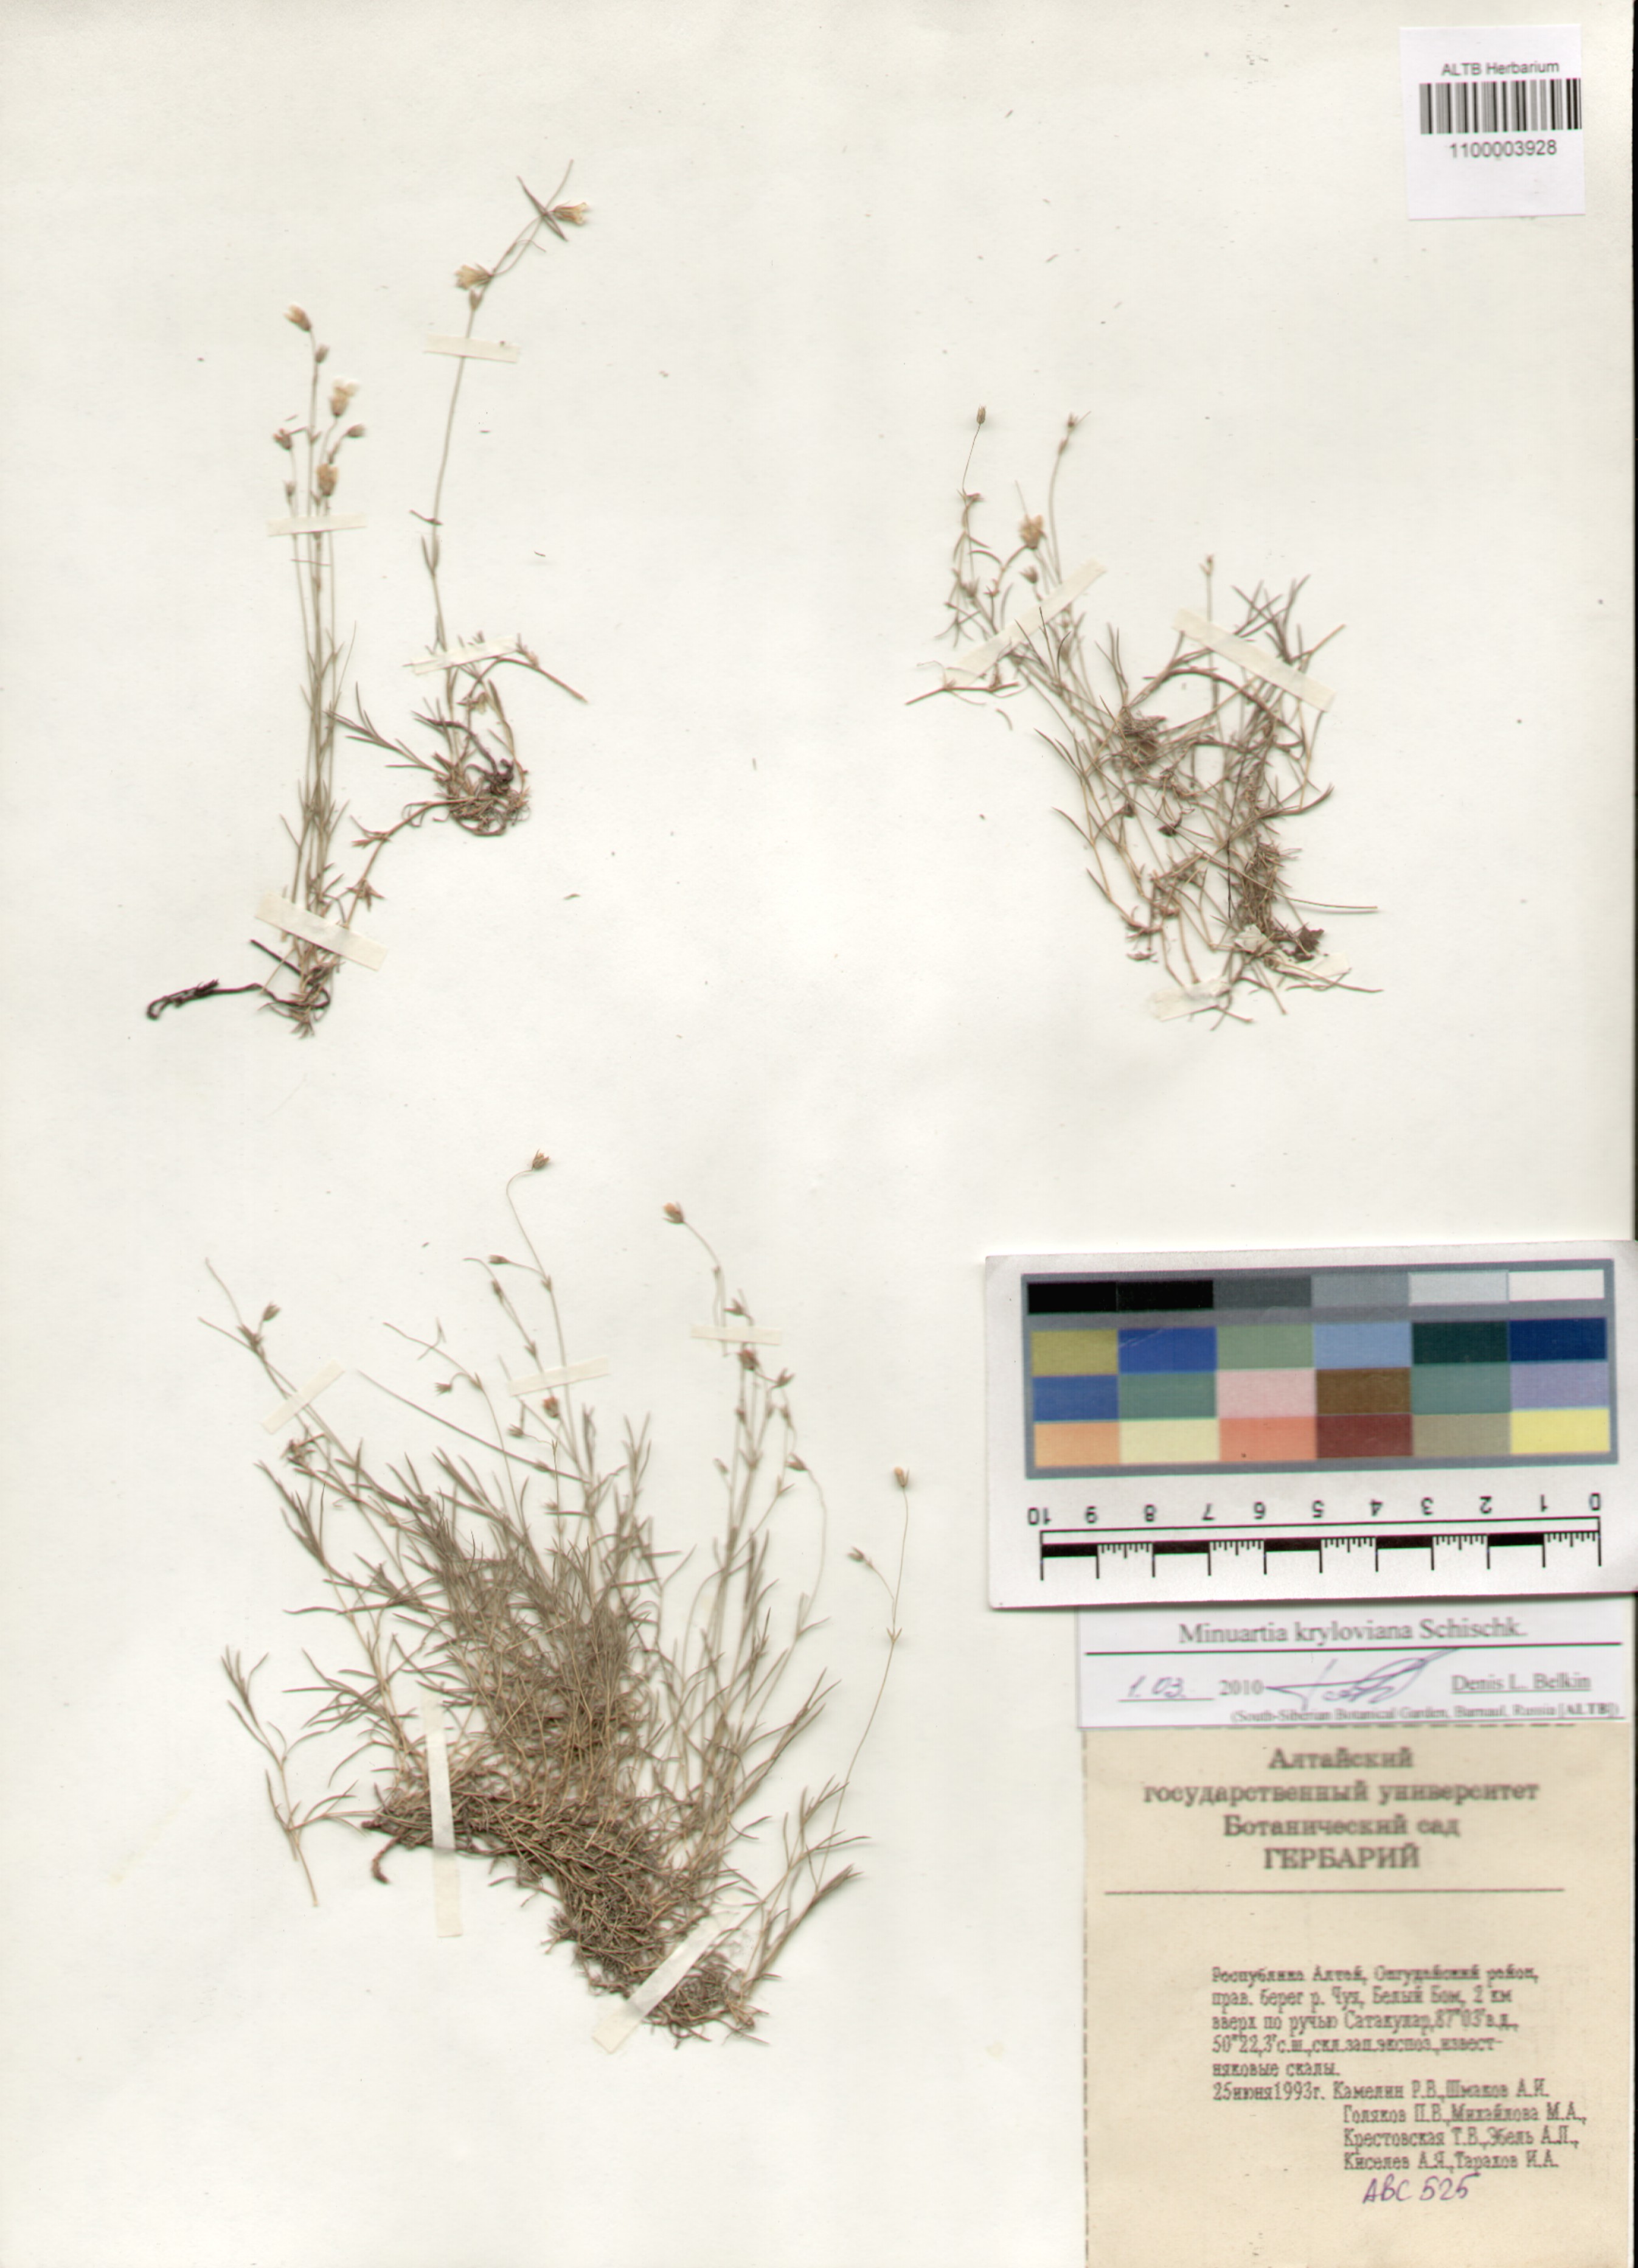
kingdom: Plantae
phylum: Tracheophyta
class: Magnoliopsida
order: Caryophyllales
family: Caryophyllaceae
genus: Sabulina
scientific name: Sabulina kryloviana
